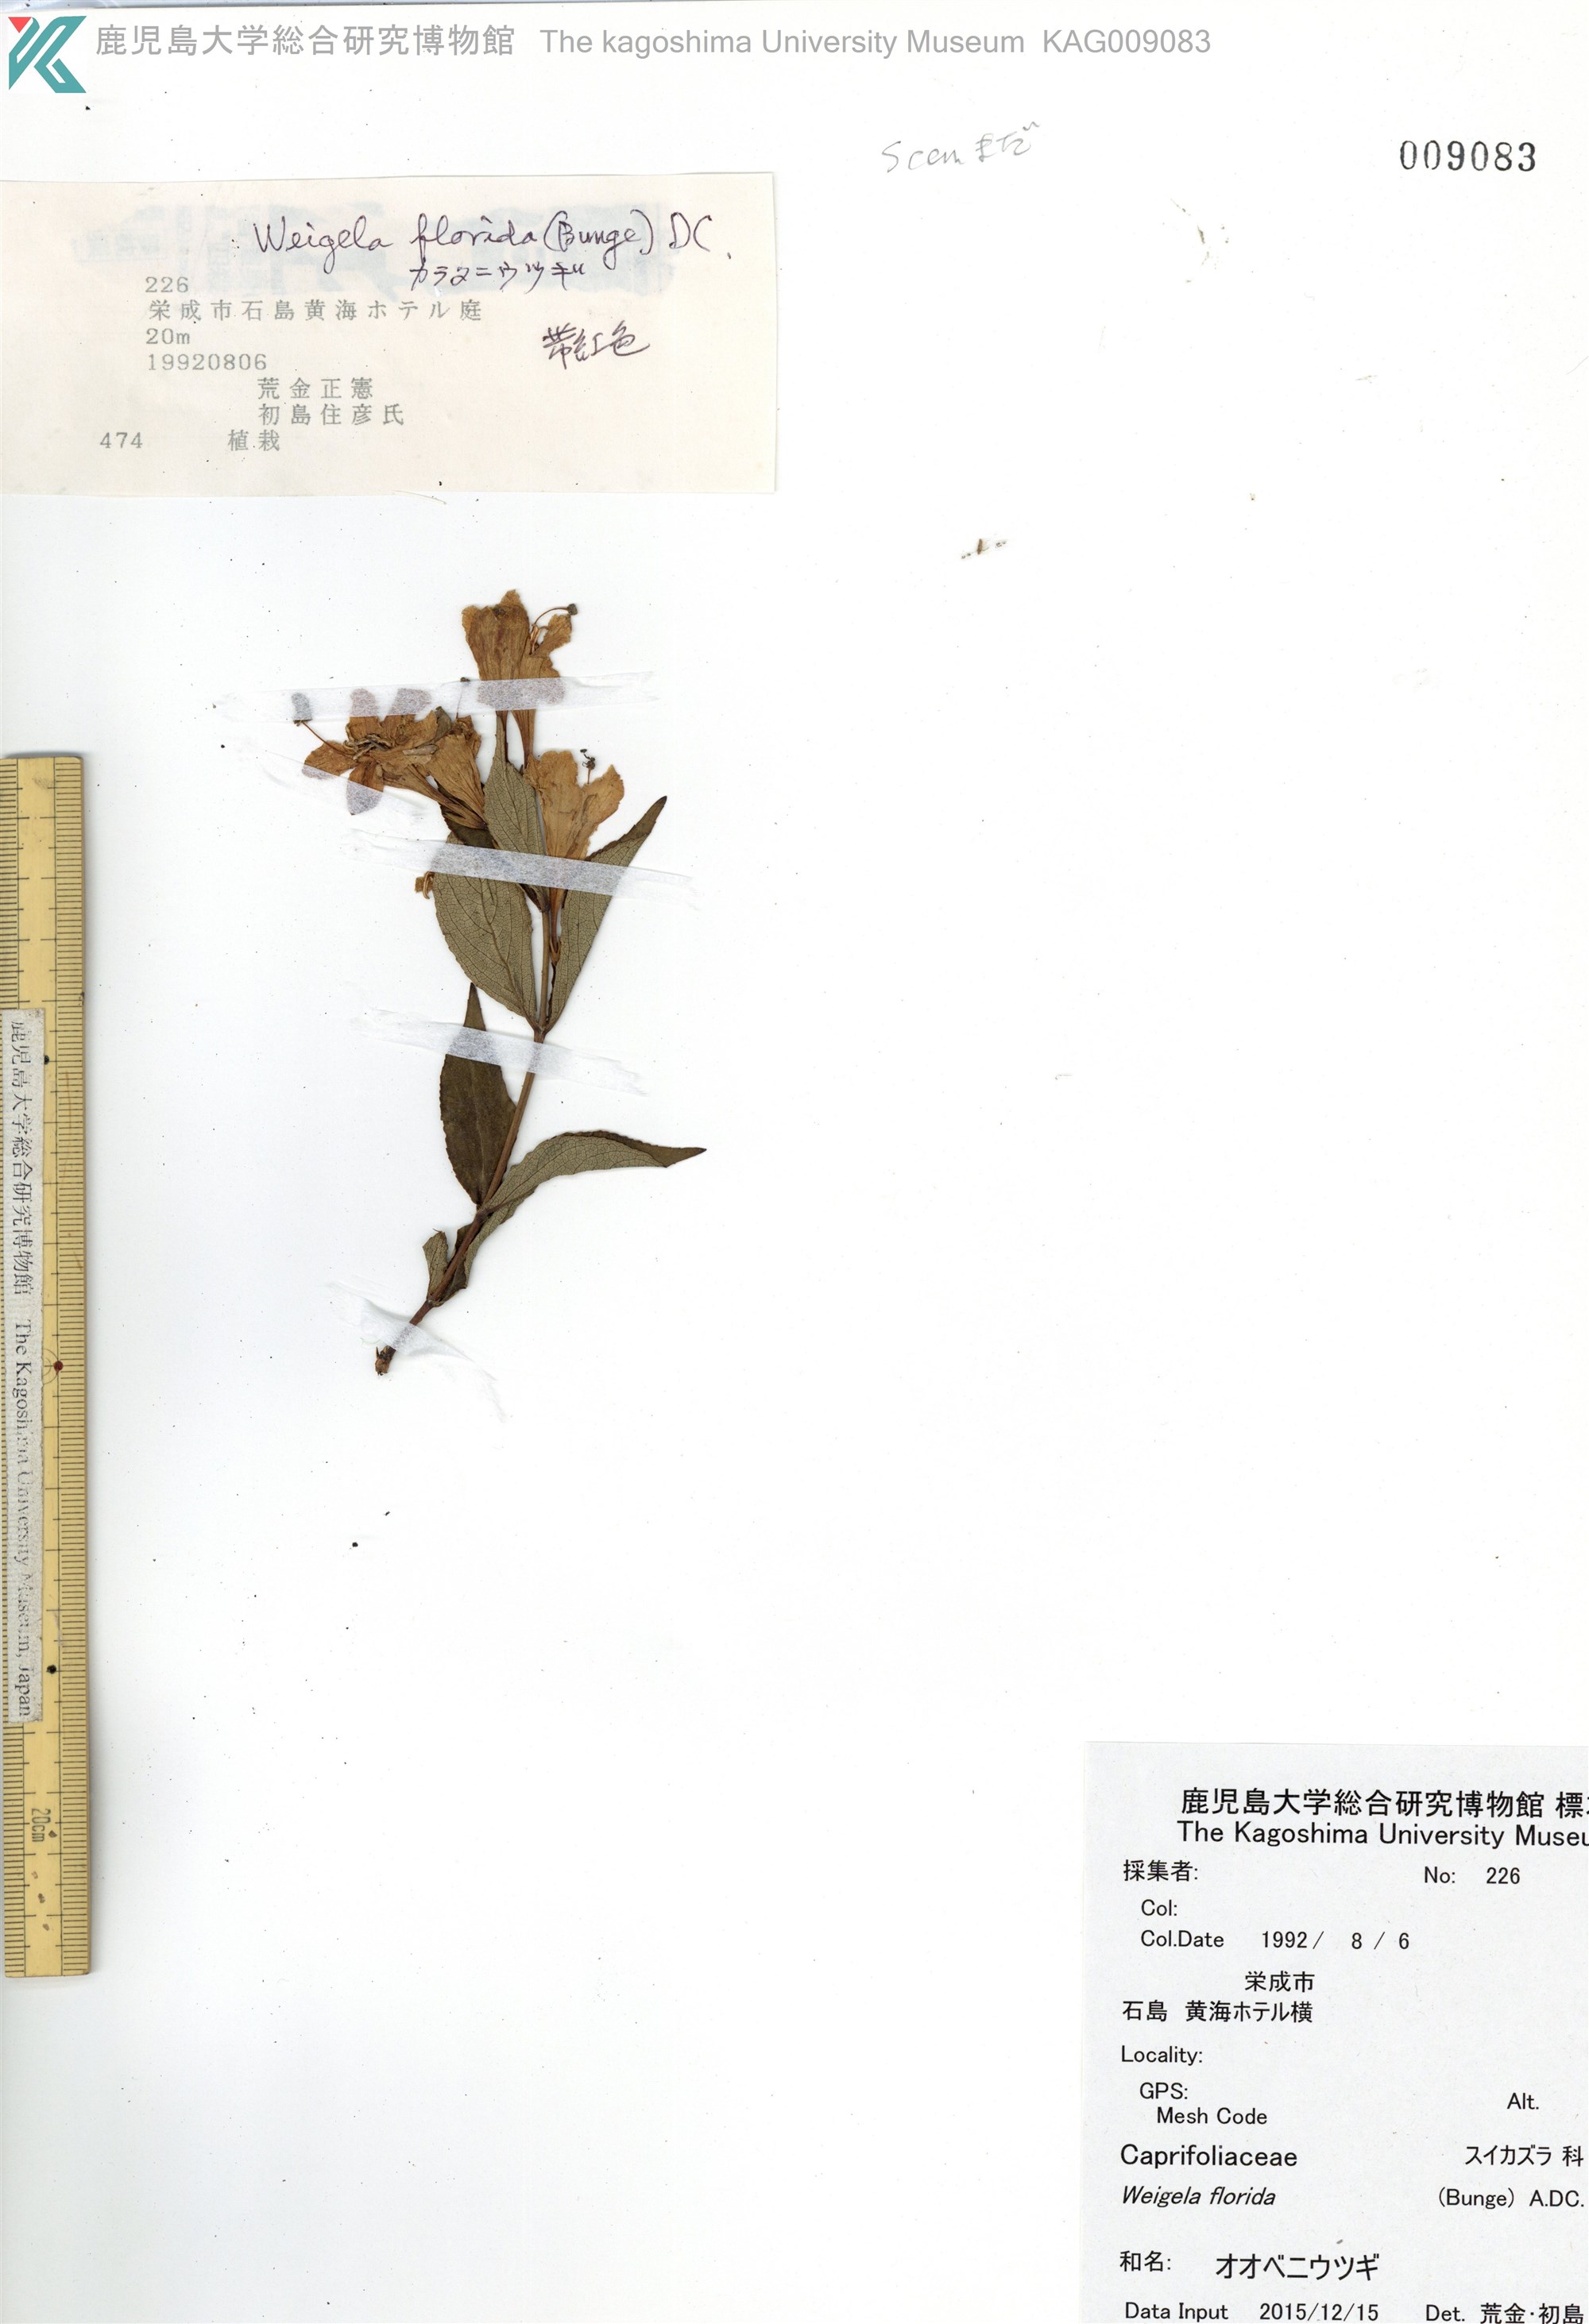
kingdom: Plantae
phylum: Tracheophyta
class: Magnoliopsida
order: Dipsacales
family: Caprifoliaceae
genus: Weigela
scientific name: Weigela florida
